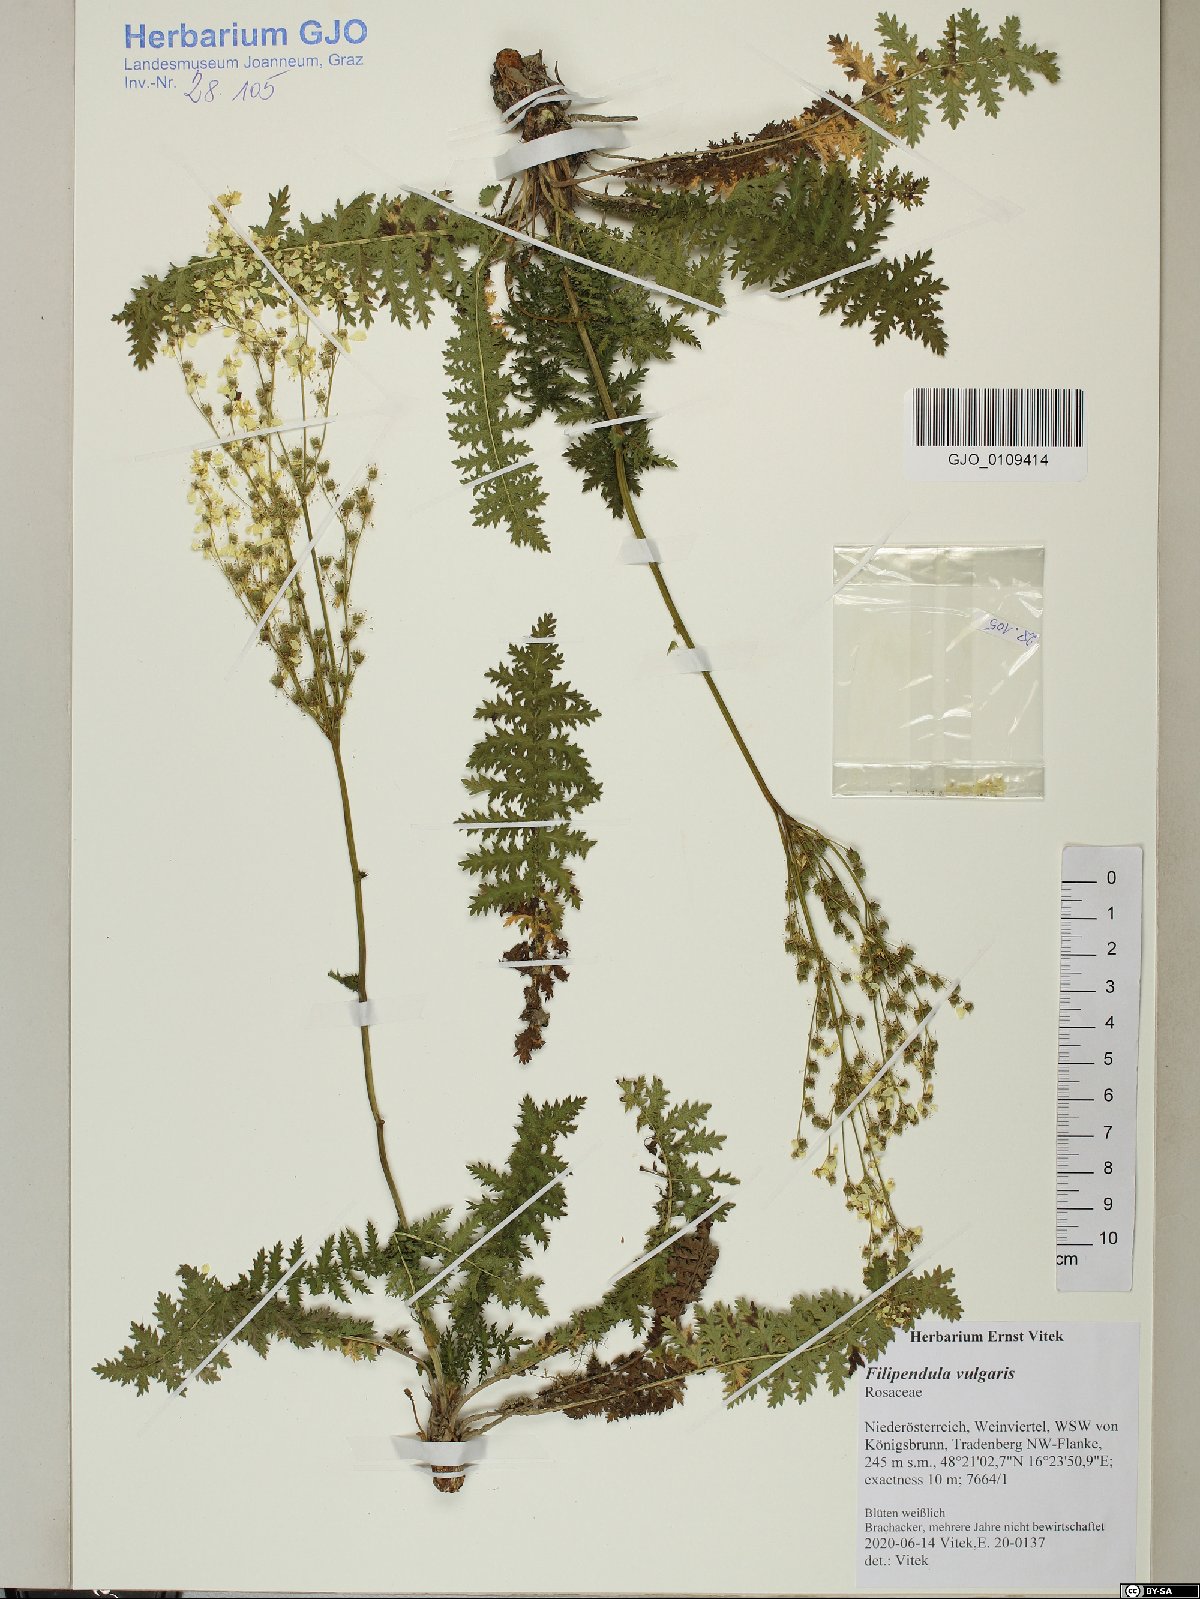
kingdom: Plantae
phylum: Tracheophyta
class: Magnoliopsida
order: Rosales
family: Rosaceae
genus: Filipendula
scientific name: Filipendula vulgaris
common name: Dropwort
